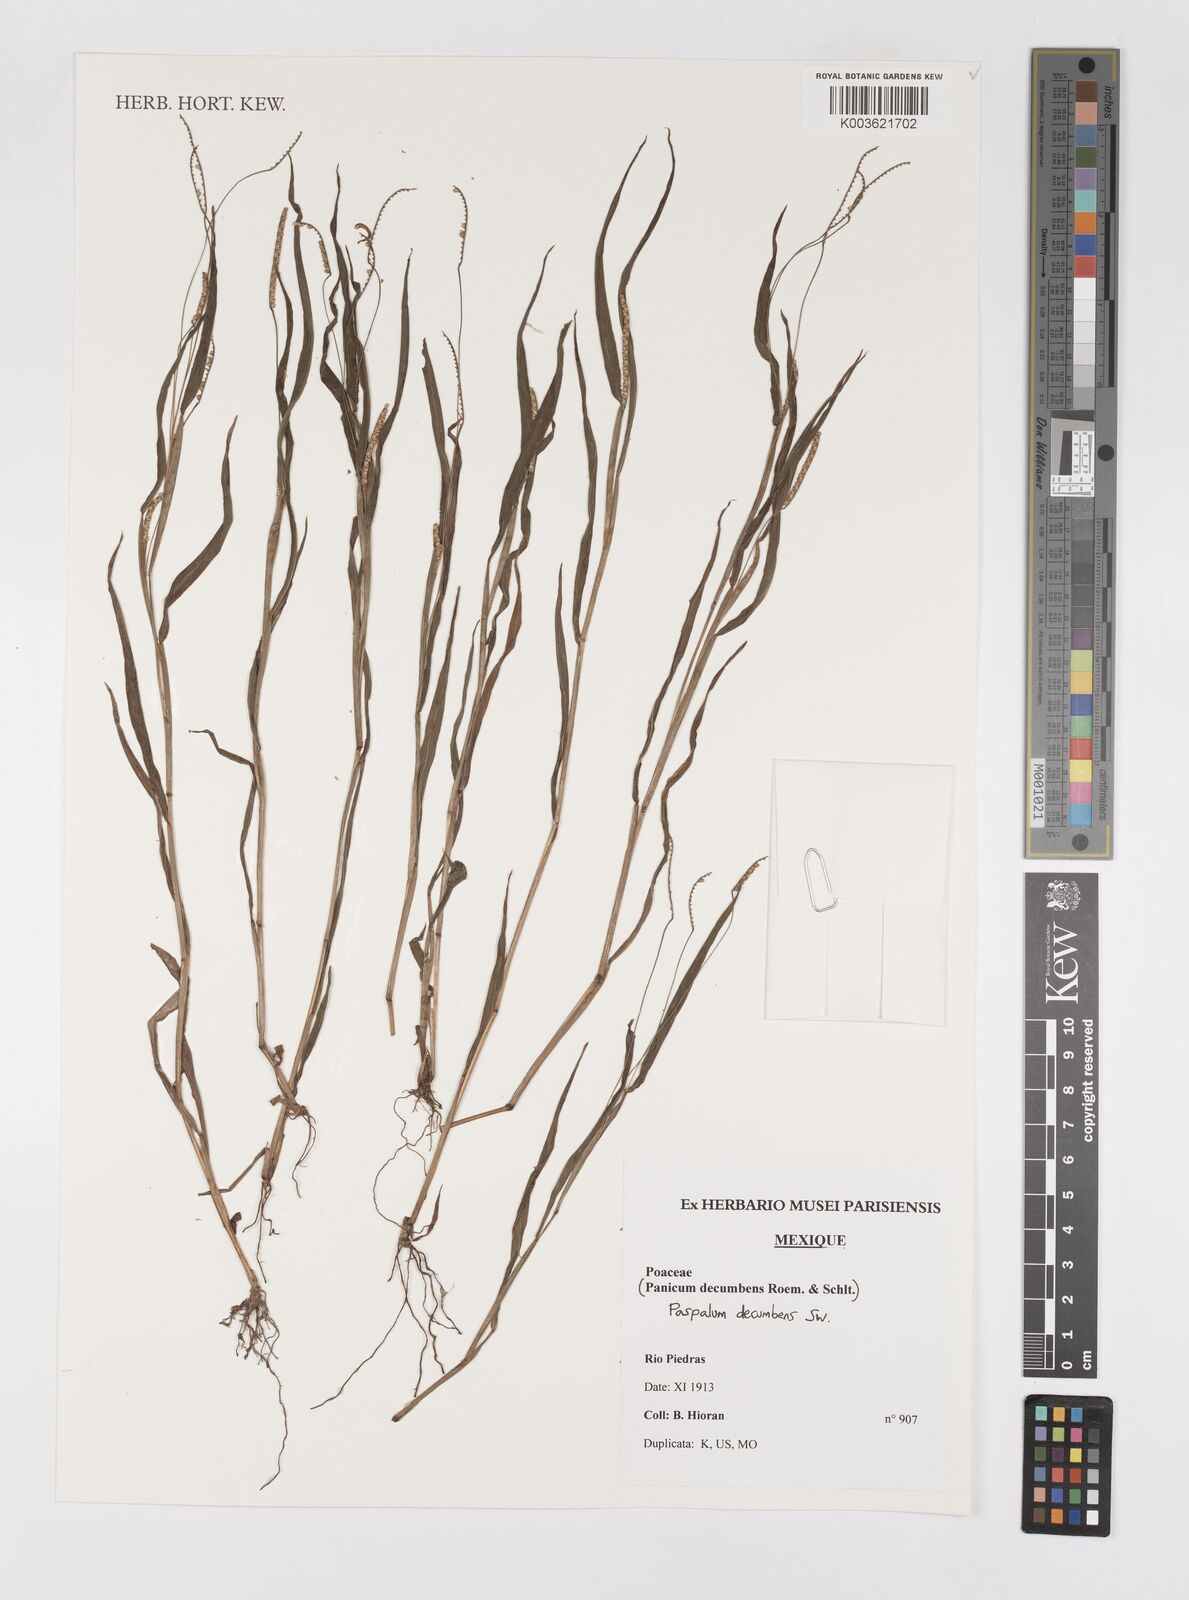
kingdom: Plantae
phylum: Tracheophyta
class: Liliopsida
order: Poales
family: Poaceae
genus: Paspalum
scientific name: Paspalum
